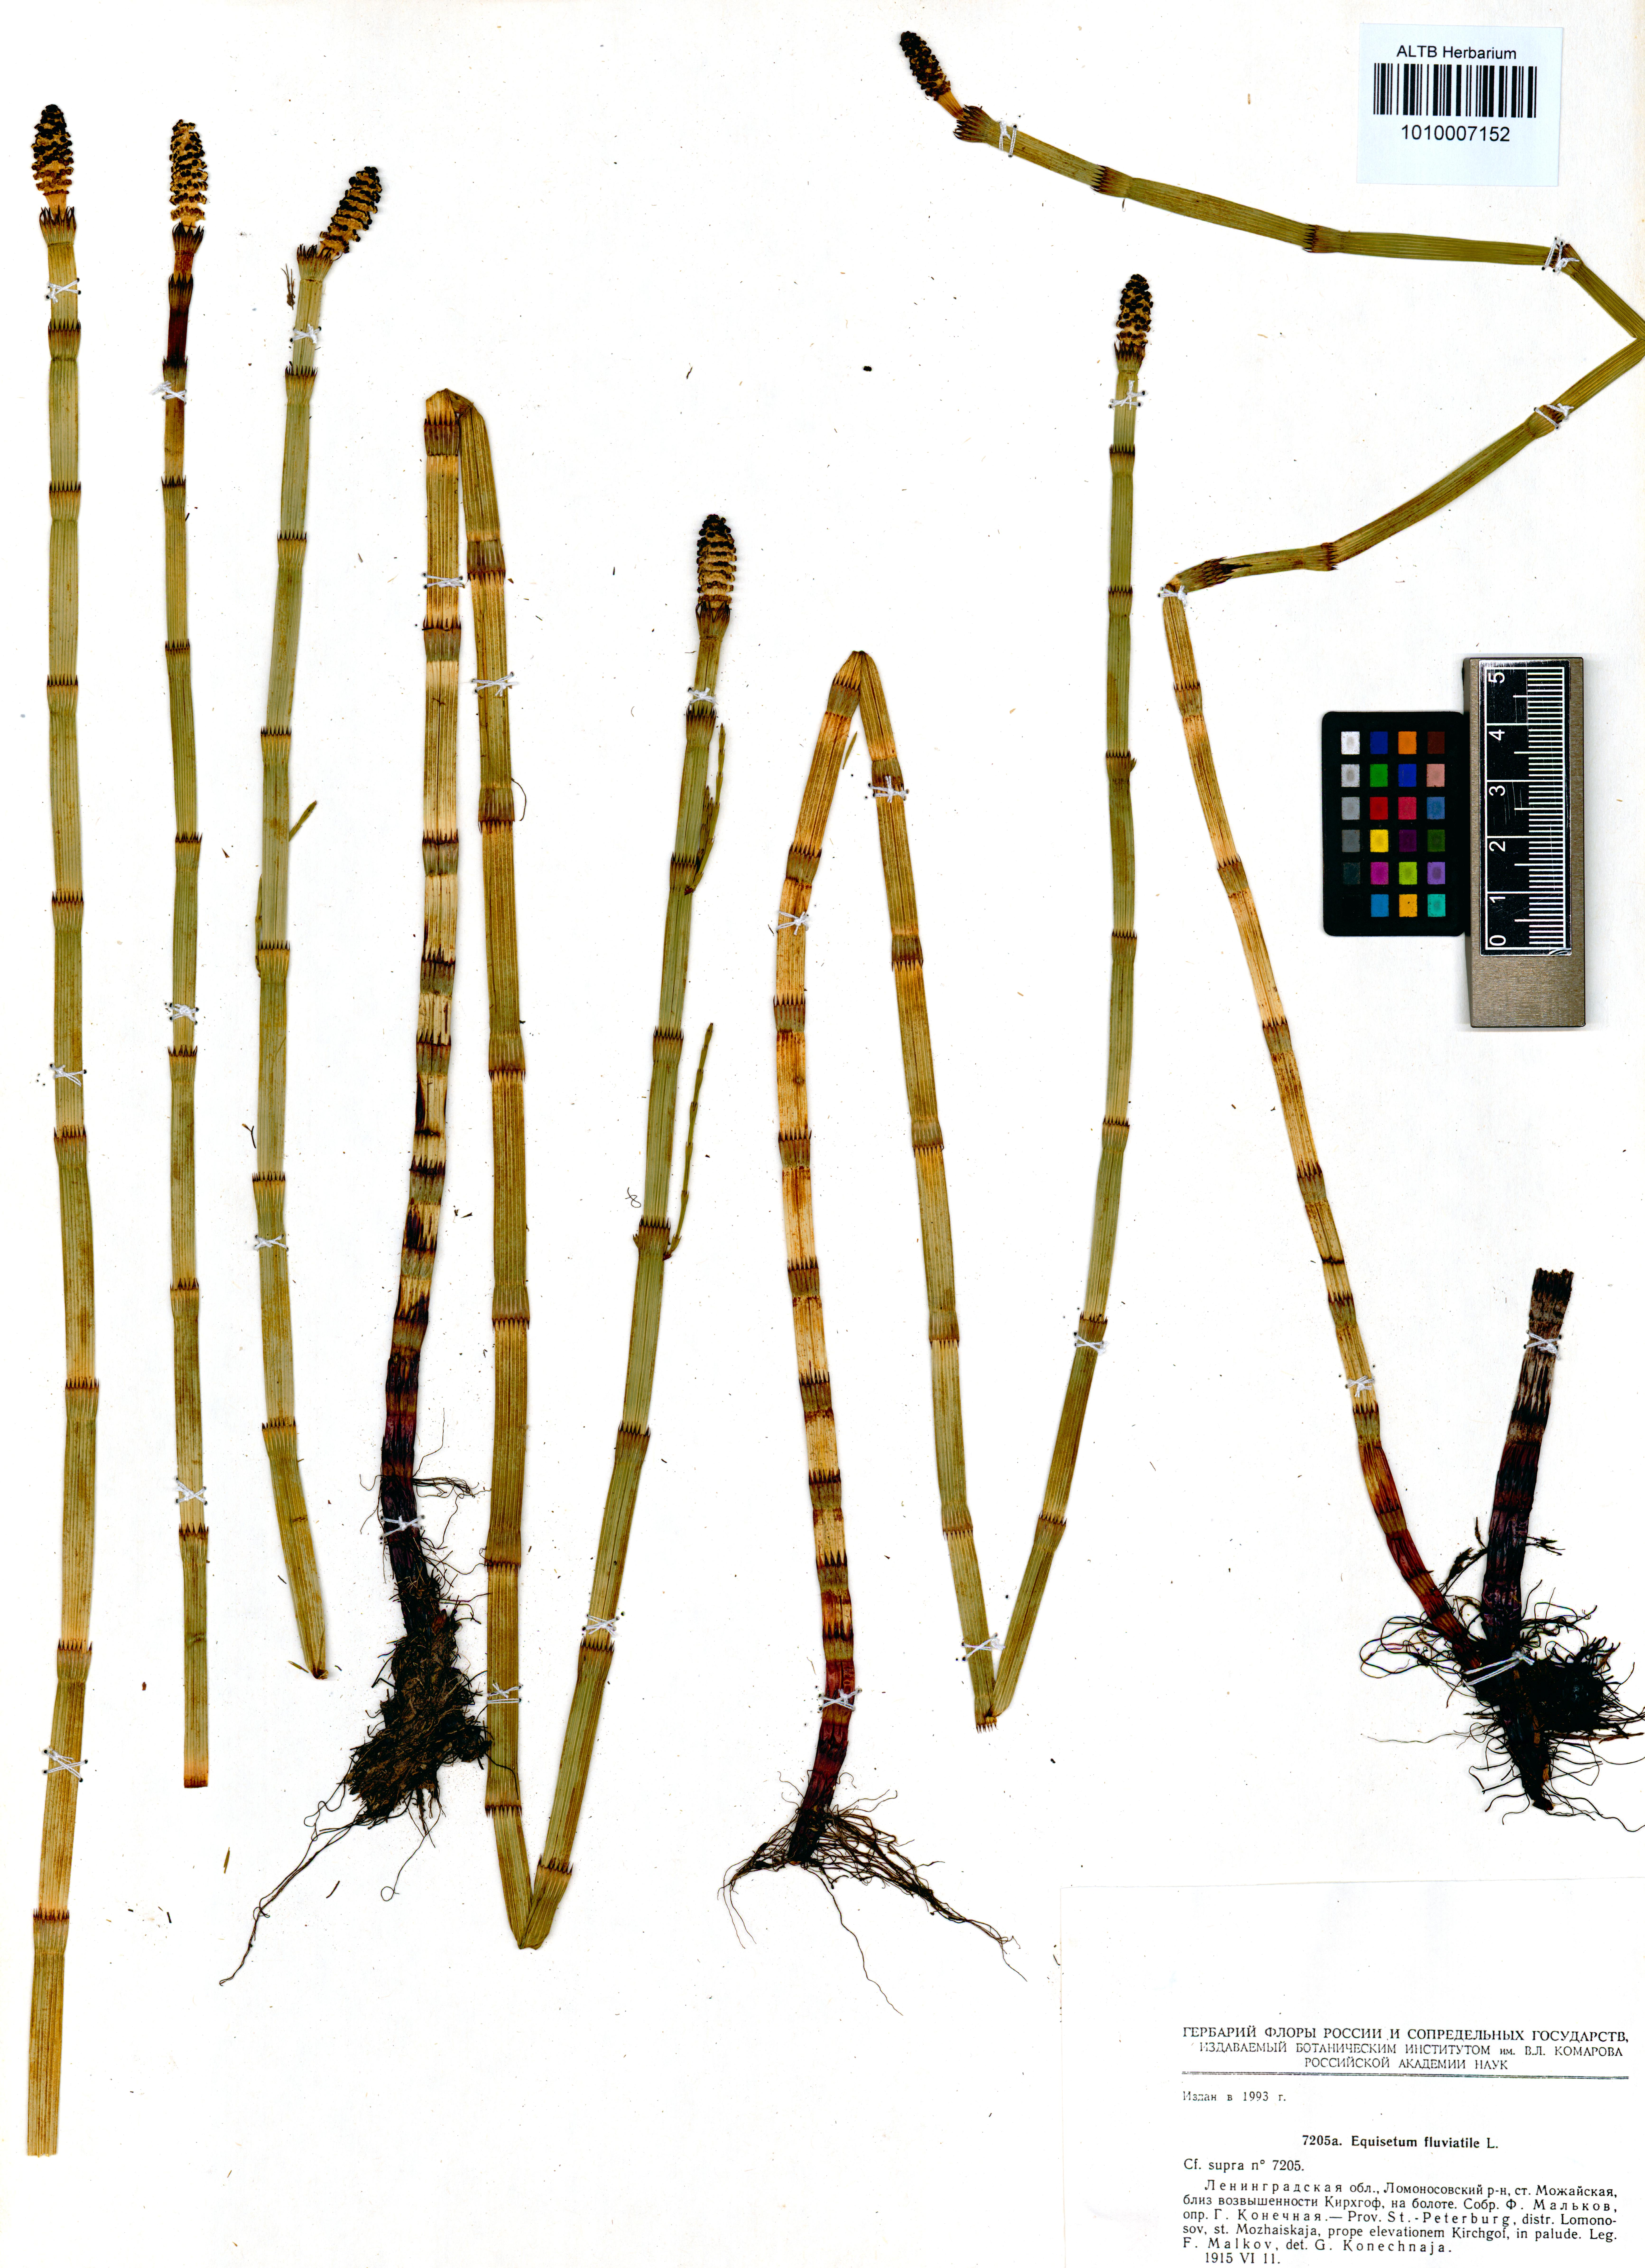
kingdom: Plantae
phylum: Tracheophyta
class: Polypodiopsida
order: Equisetales
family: Equisetaceae
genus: Equisetum
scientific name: Equisetum fluviatile
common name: Water horsetail
